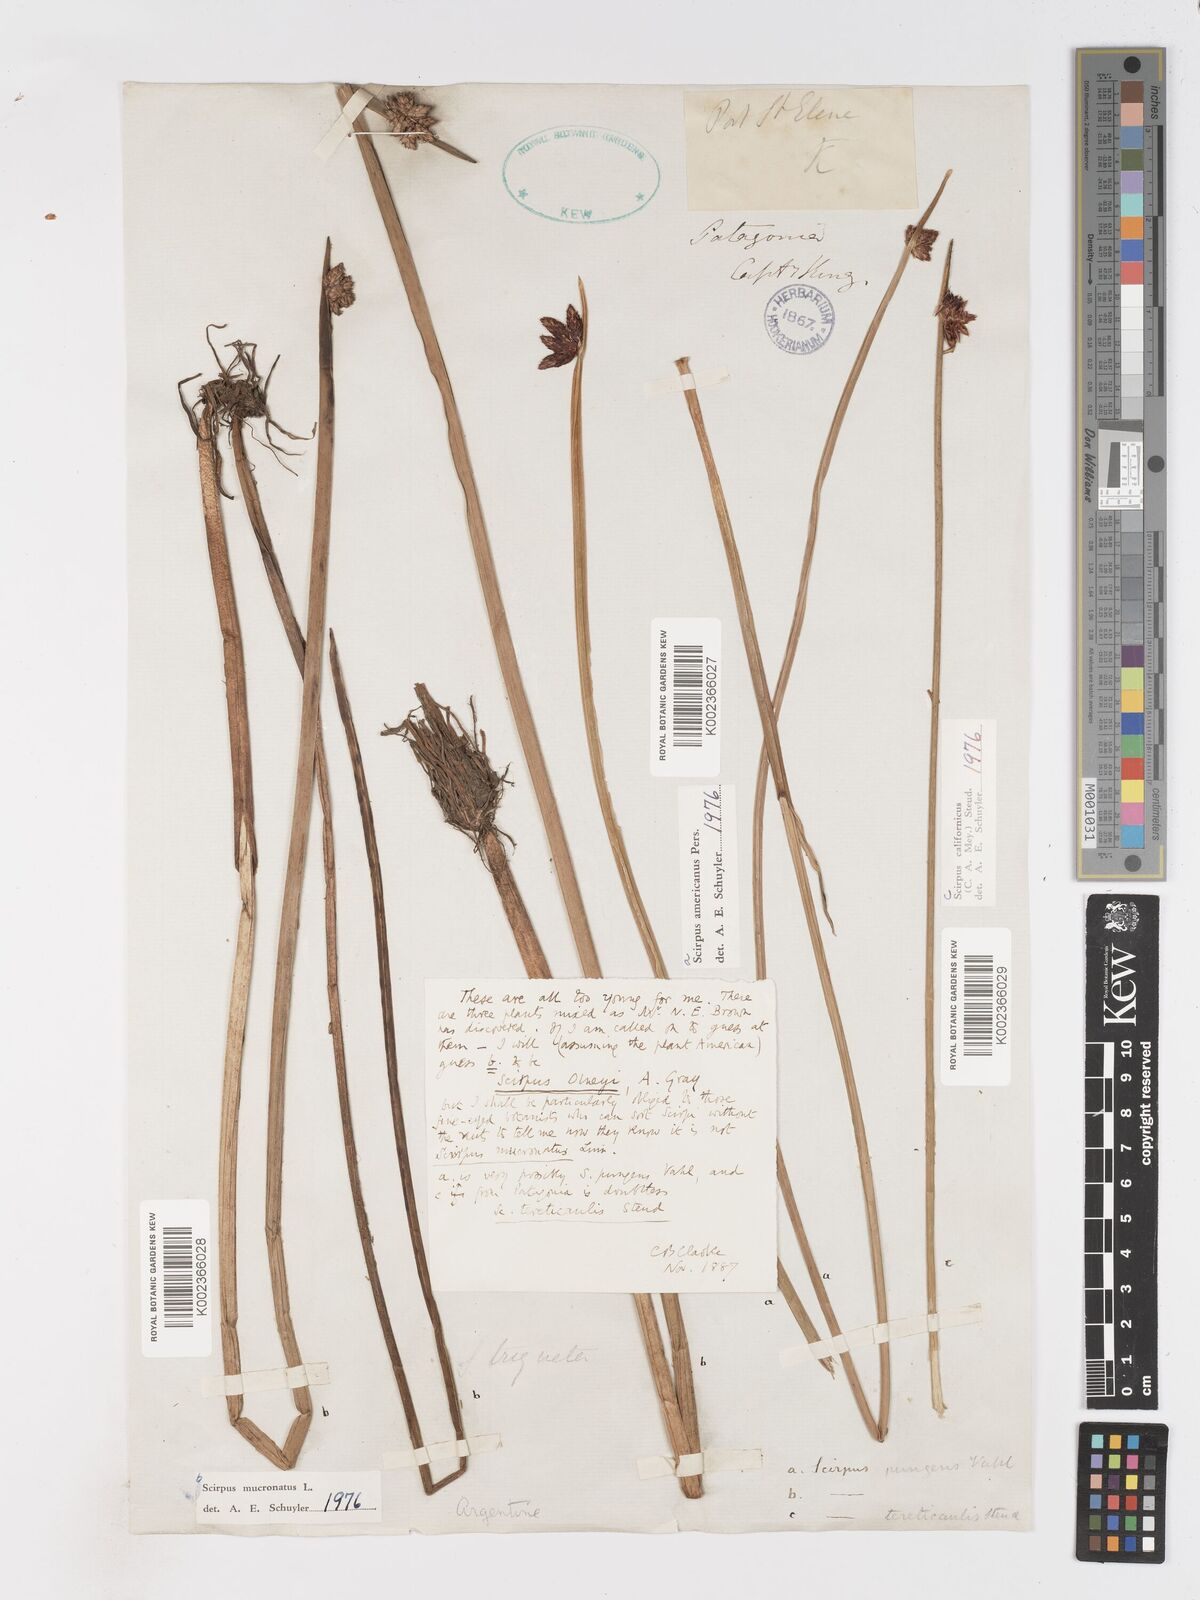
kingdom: Plantae
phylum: Tracheophyta
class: Liliopsida
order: Poales
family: Cyperaceae
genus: Schoenoplectus
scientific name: Schoenoplectus americanus
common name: American three-square bulrush
